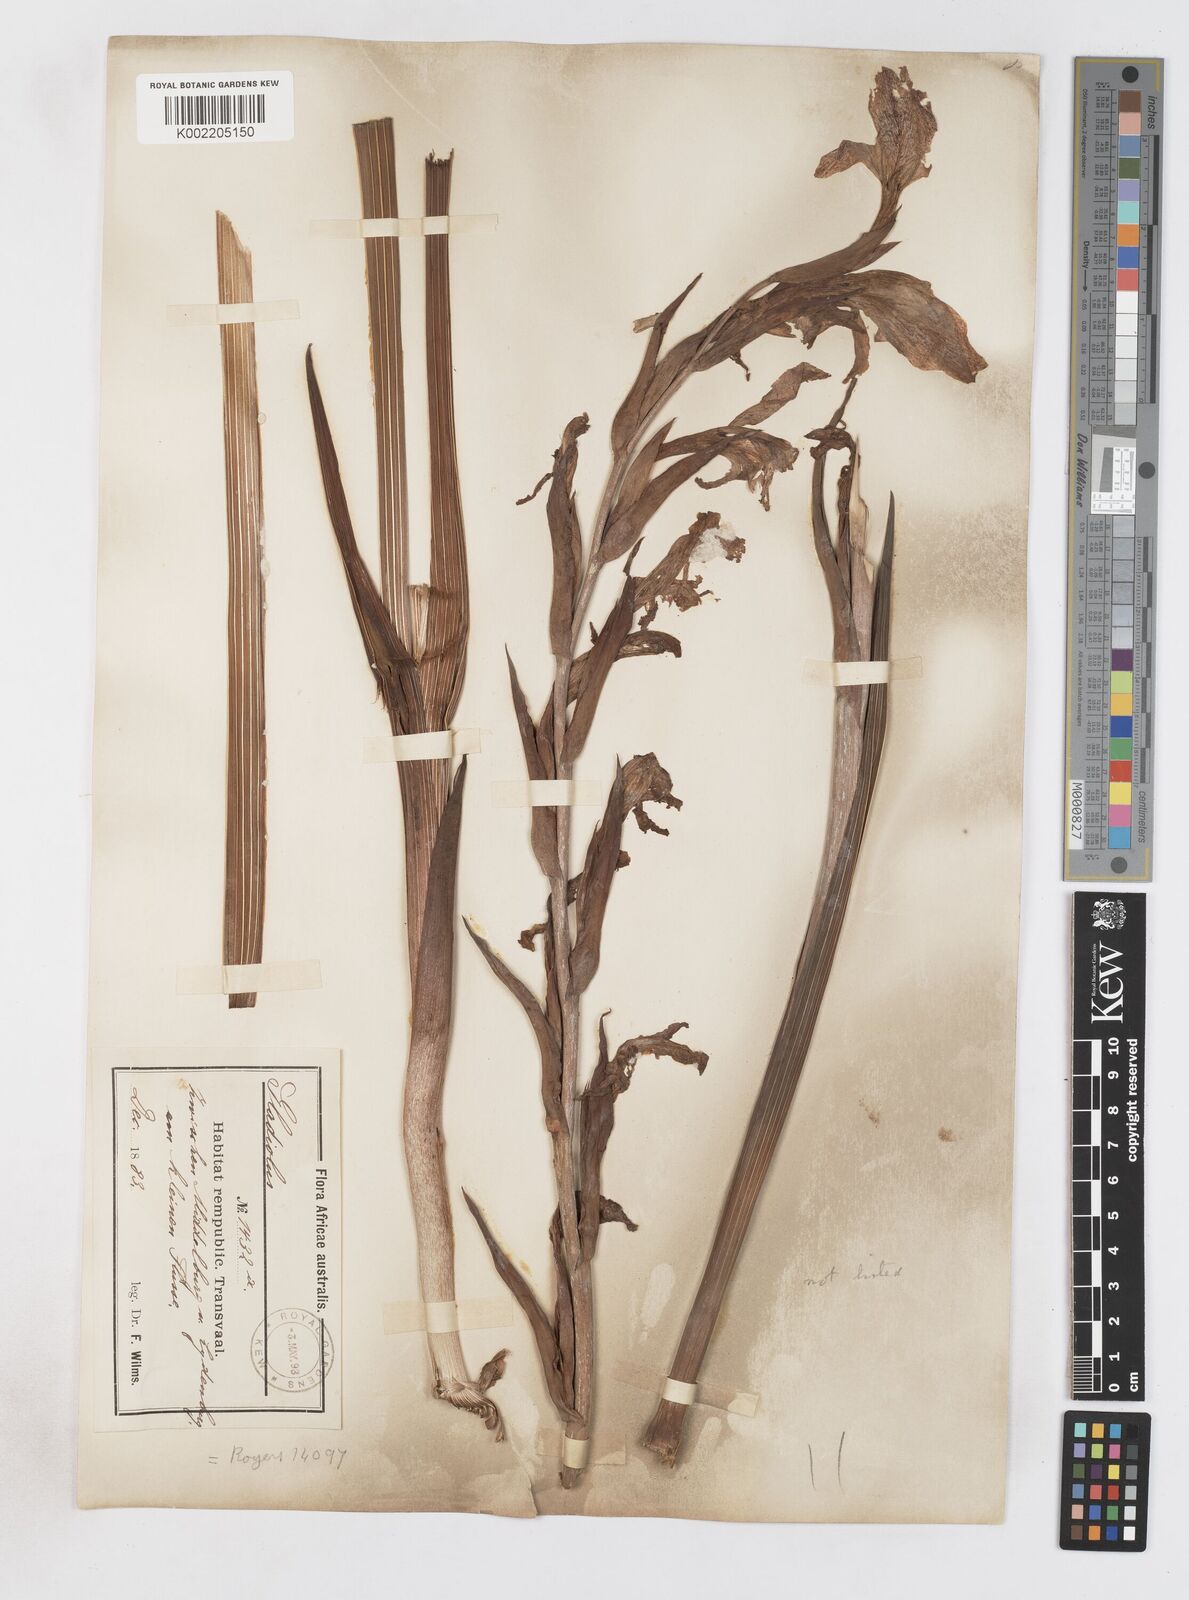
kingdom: Plantae
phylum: Tracheophyta
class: Liliopsida
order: Asparagales
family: Iridaceae
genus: Gladiolus
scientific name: Gladiolus dalenii
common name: Cornflag
